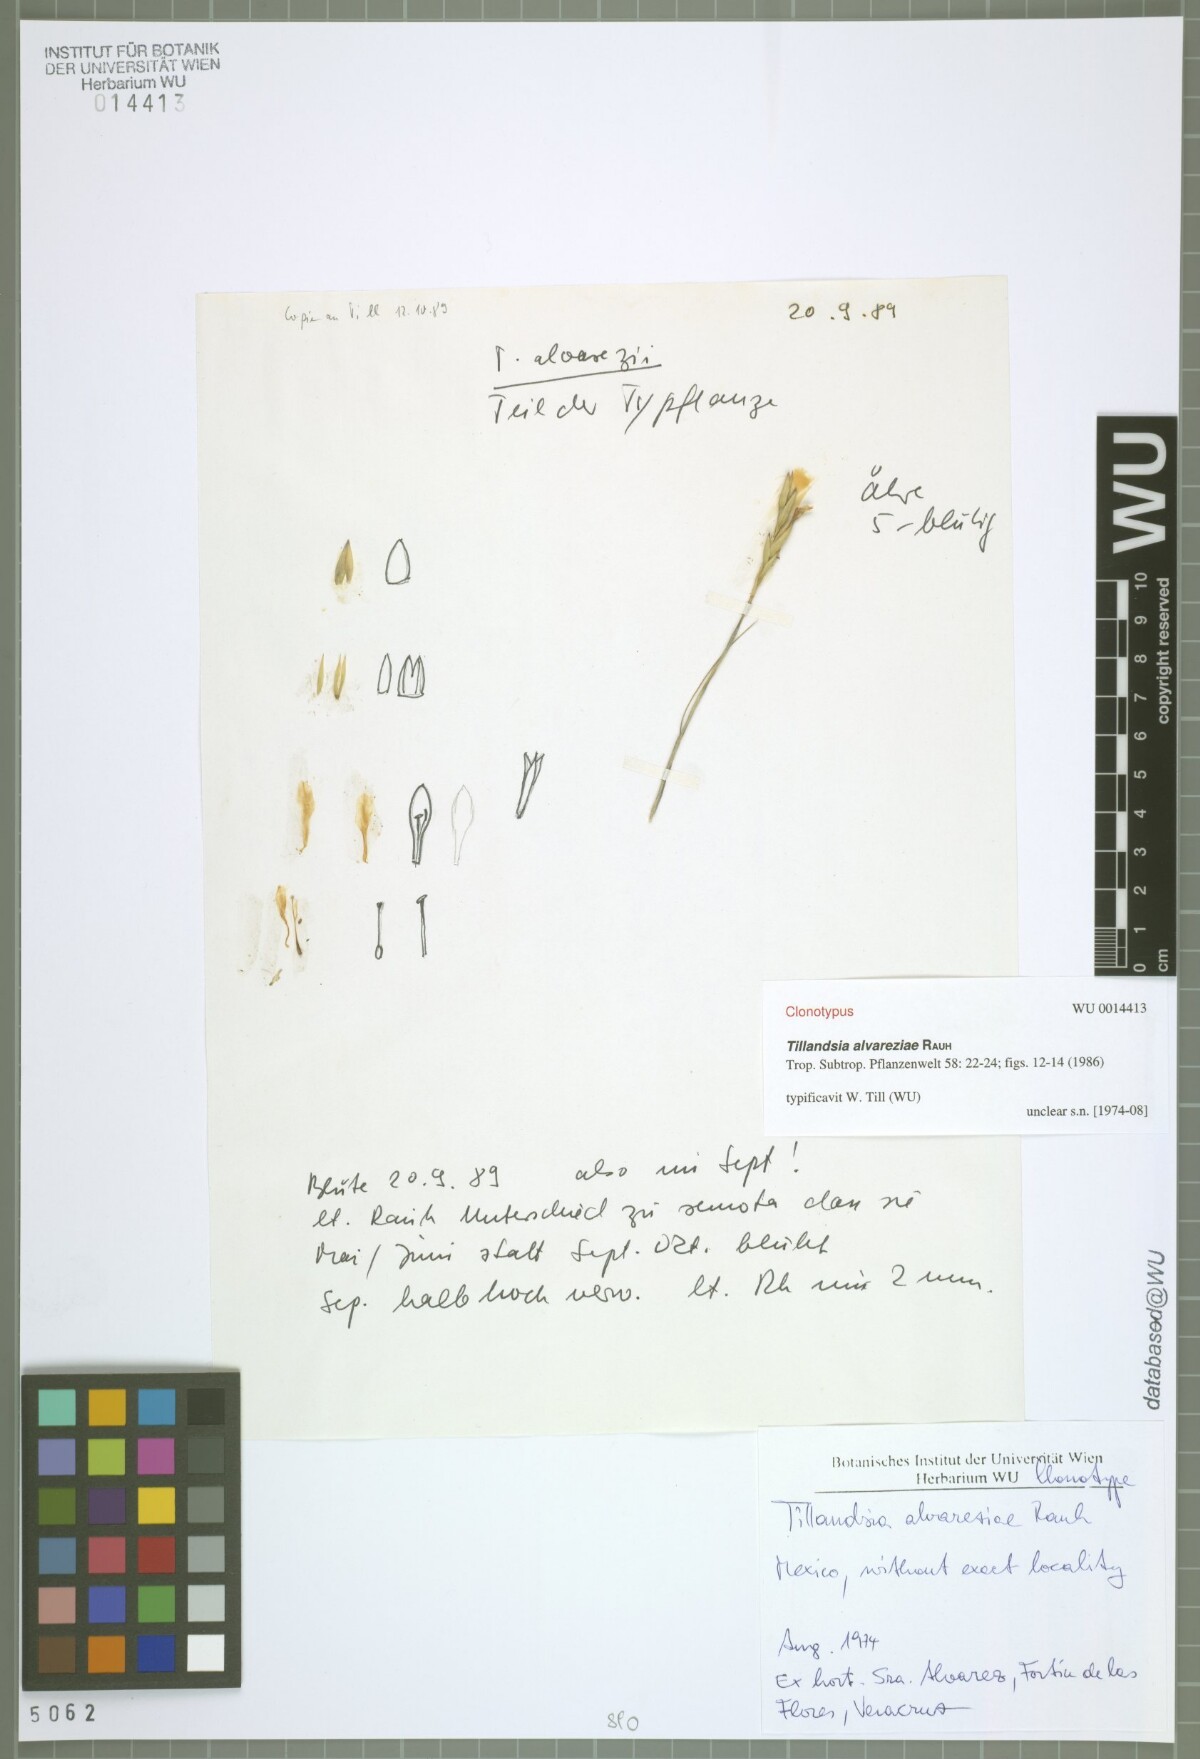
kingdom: Plantae
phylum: Tracheophyta
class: Liliopsida
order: Poales
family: Bromeliaceae
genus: Tillandsia
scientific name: Tillandsia alvareziae
